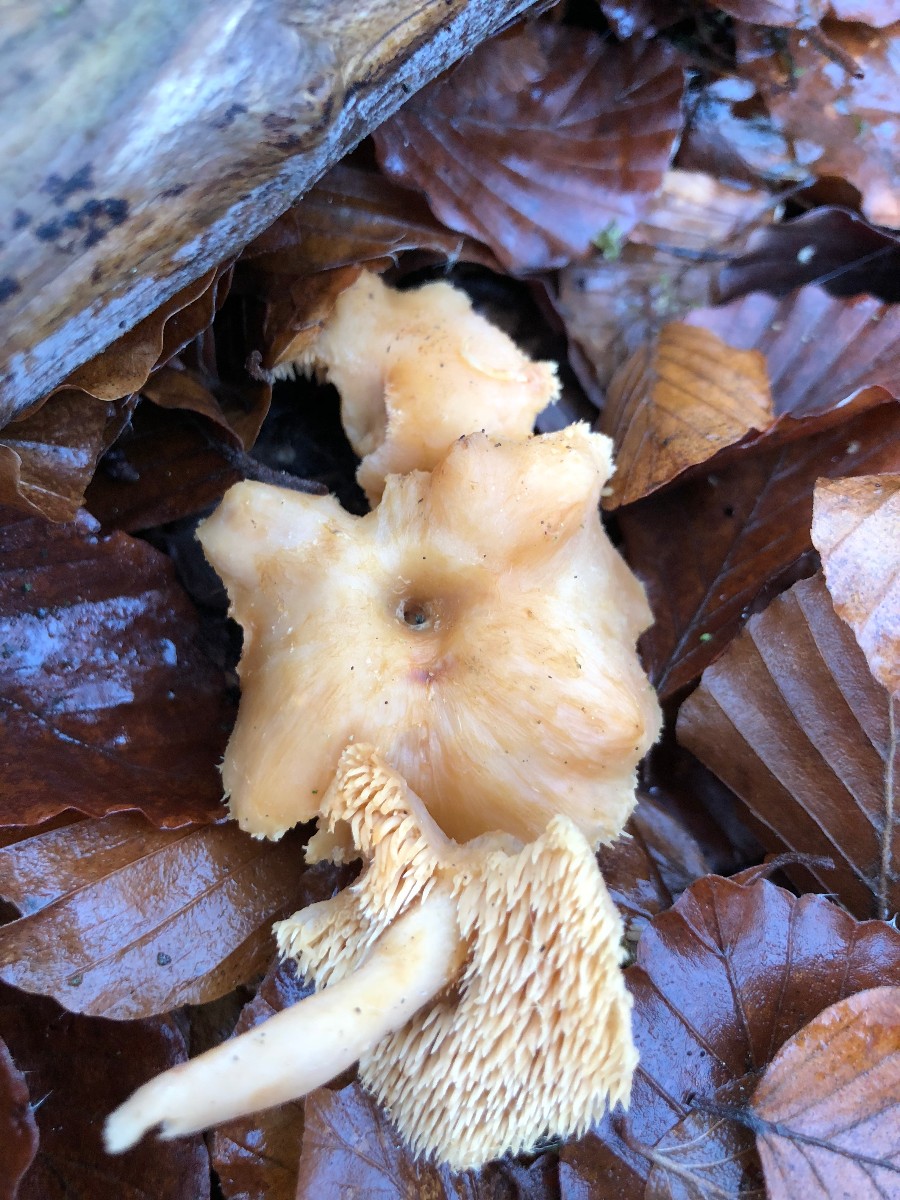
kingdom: Fungi
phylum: Basidiomycota
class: Agaricomycetes
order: Cantharellales
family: Hydnaceae
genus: Hydnum
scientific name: Hydnum
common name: pigsvamp
